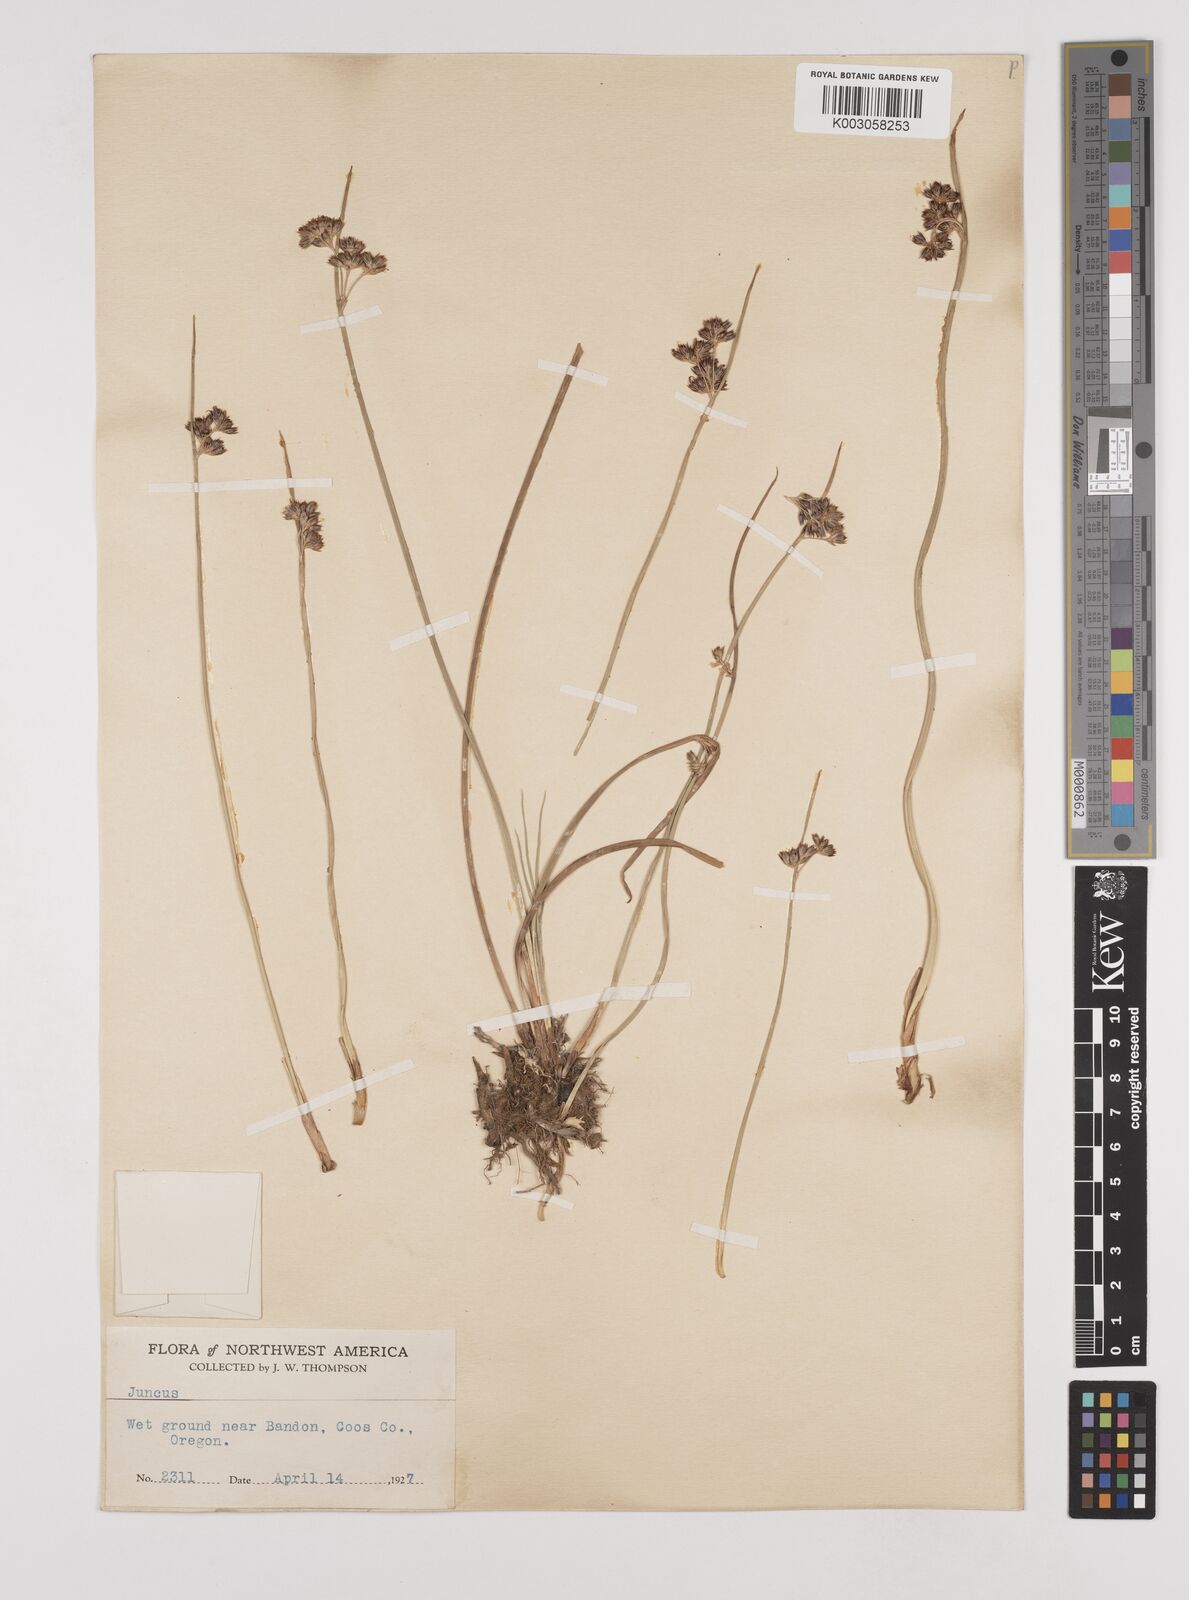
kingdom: Plantae
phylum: Tracheophyta
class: Liliopsida
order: Poales
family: Juncaceae
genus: Juncus
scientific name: Juncus
